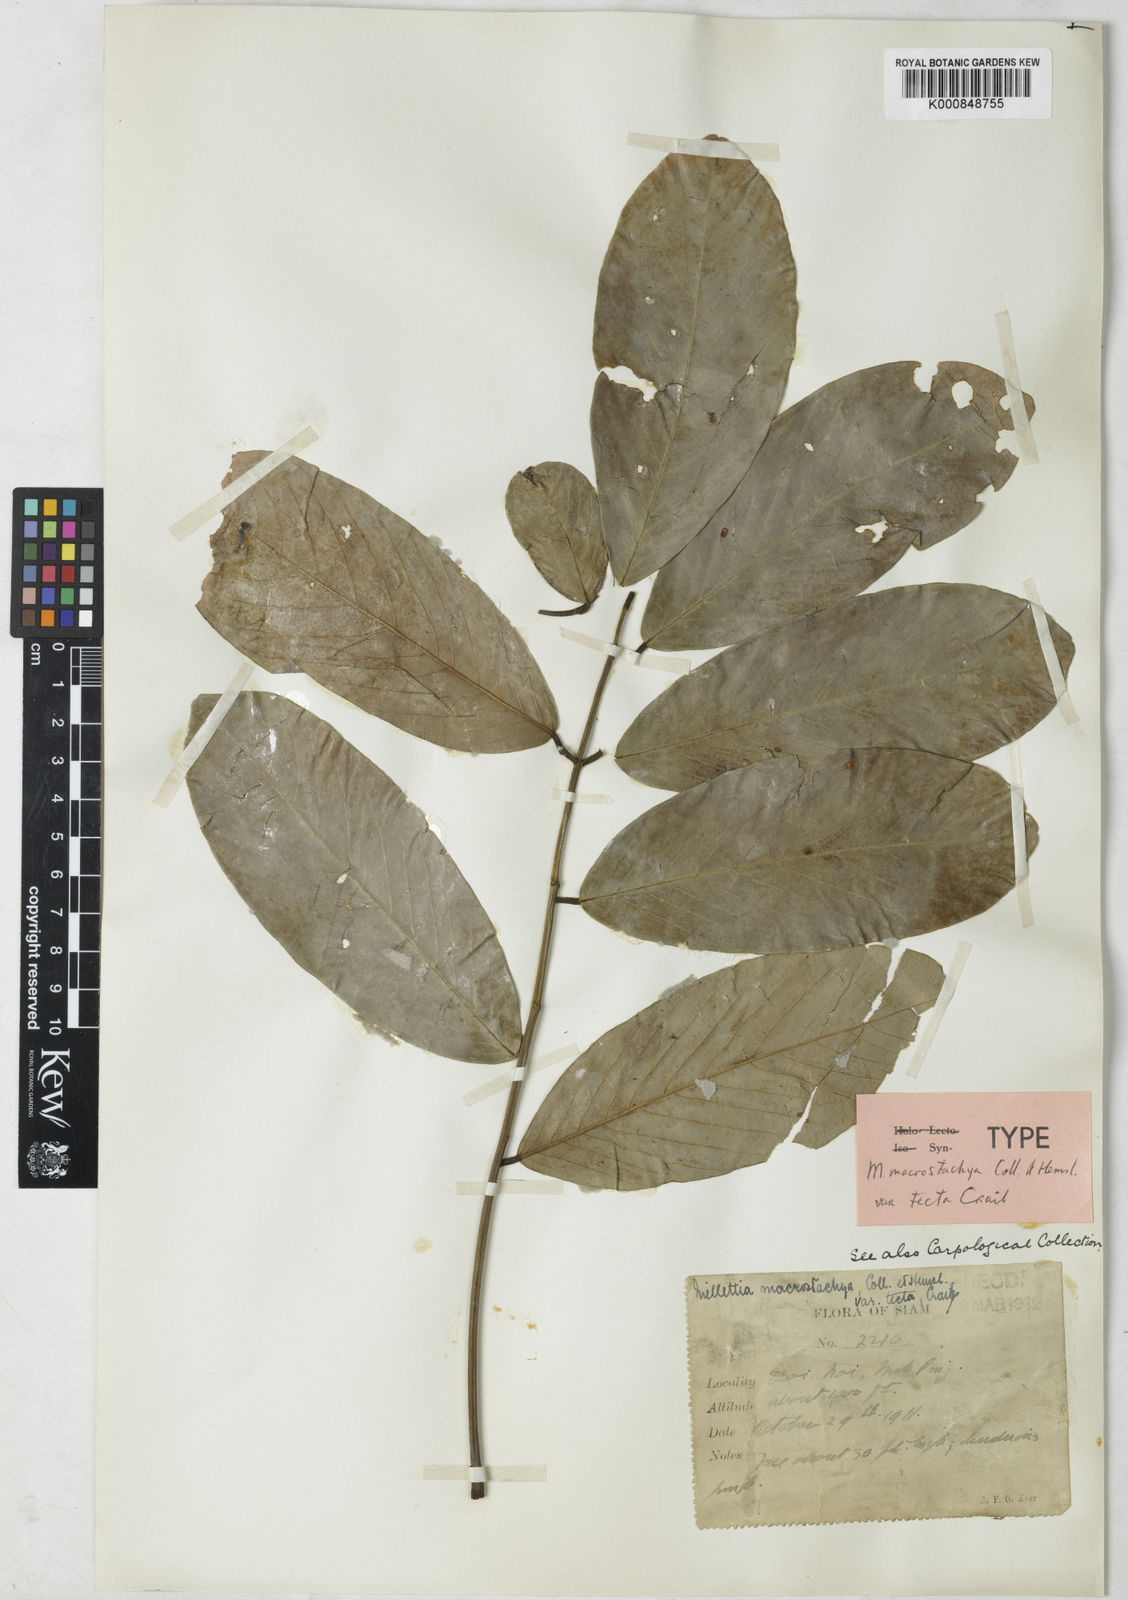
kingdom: Plantae
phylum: Tracheophyta
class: Magnoliopsida
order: Fabales
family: Fabaceae
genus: Millettia
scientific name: Millettia macrostachya
